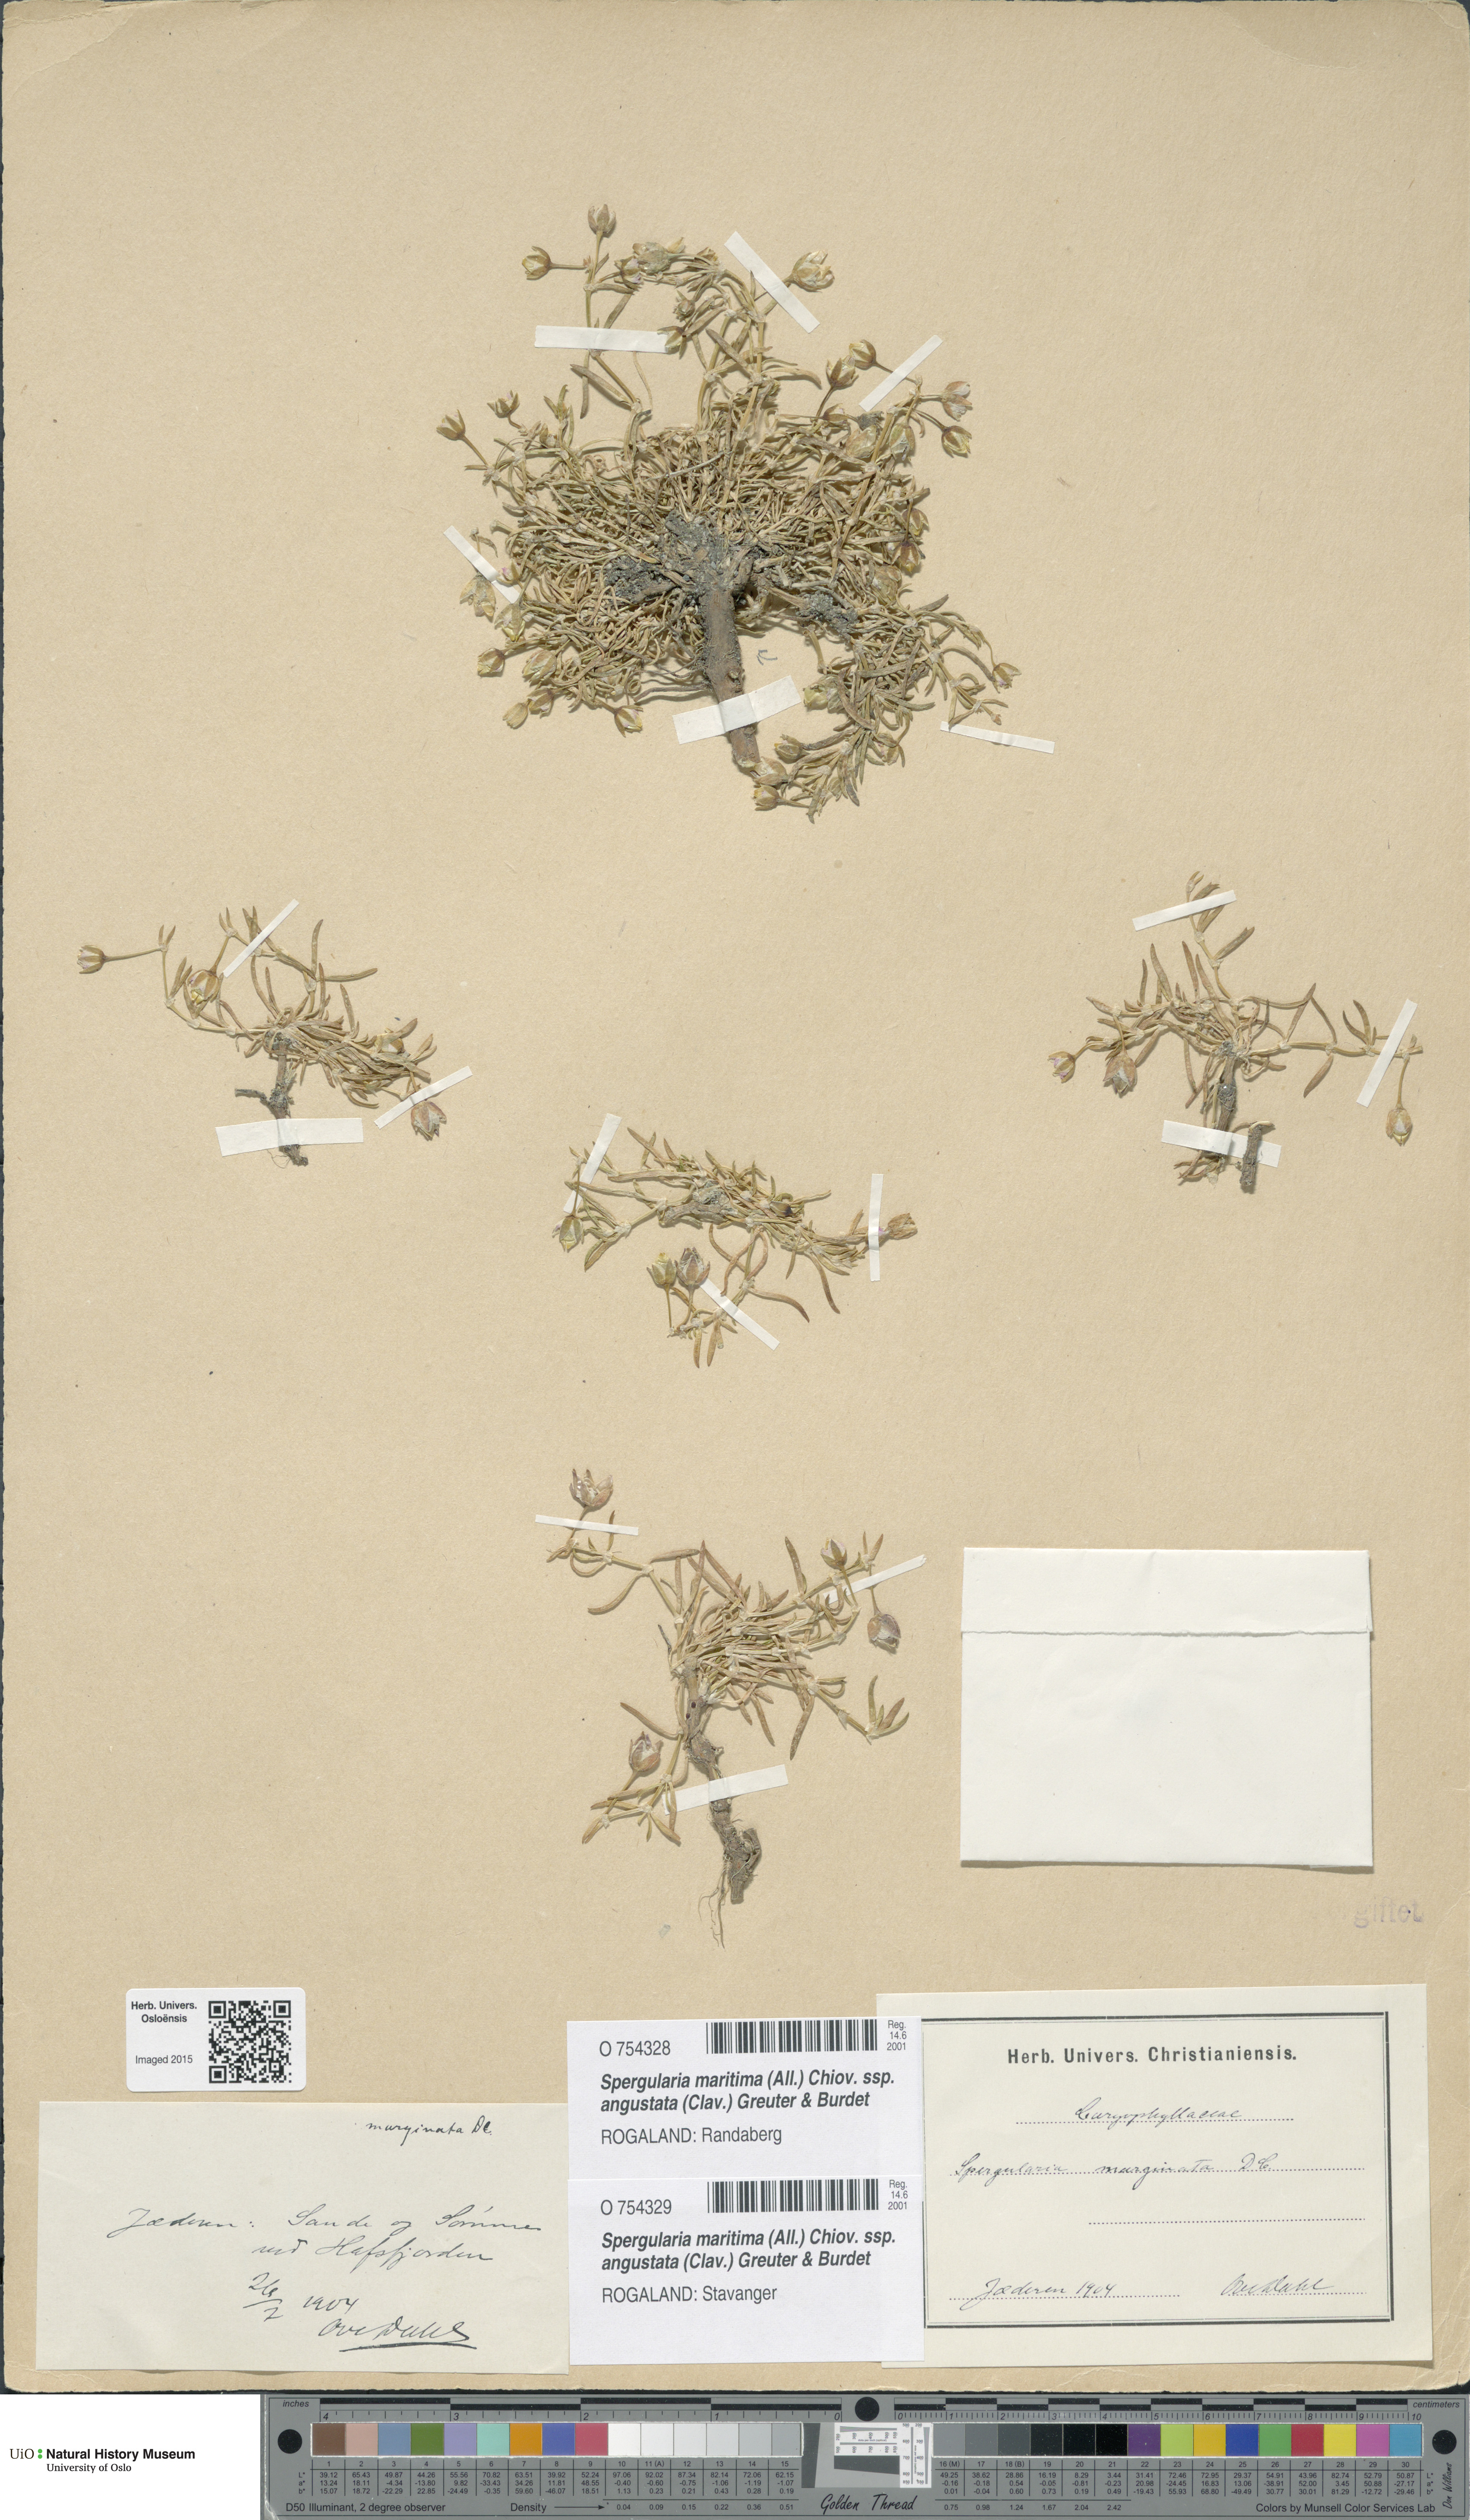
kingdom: Plantae
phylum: Tracheophyta
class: Magnoliopsida
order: Caryophyllales
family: Caryophyllaceae
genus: Spergularia
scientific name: Spergularia media
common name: Greater sea-spurrey
